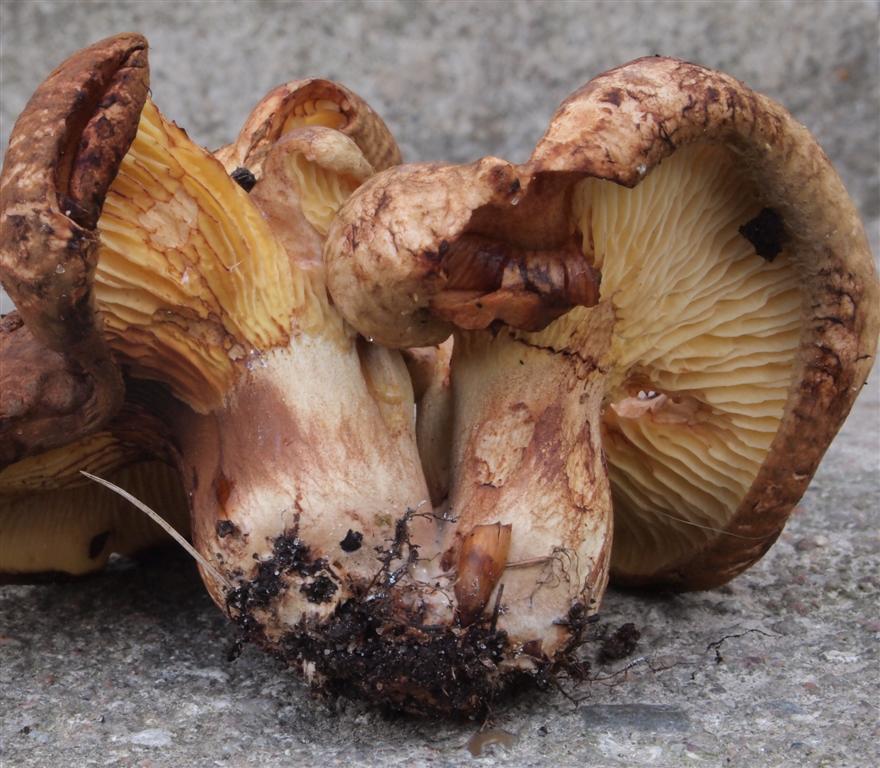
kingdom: Fungi
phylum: Basidiomycota
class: Agaricomycetes
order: Boletales
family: Paxillaceae
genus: Paxillus
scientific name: Paxillus rubicundulus
